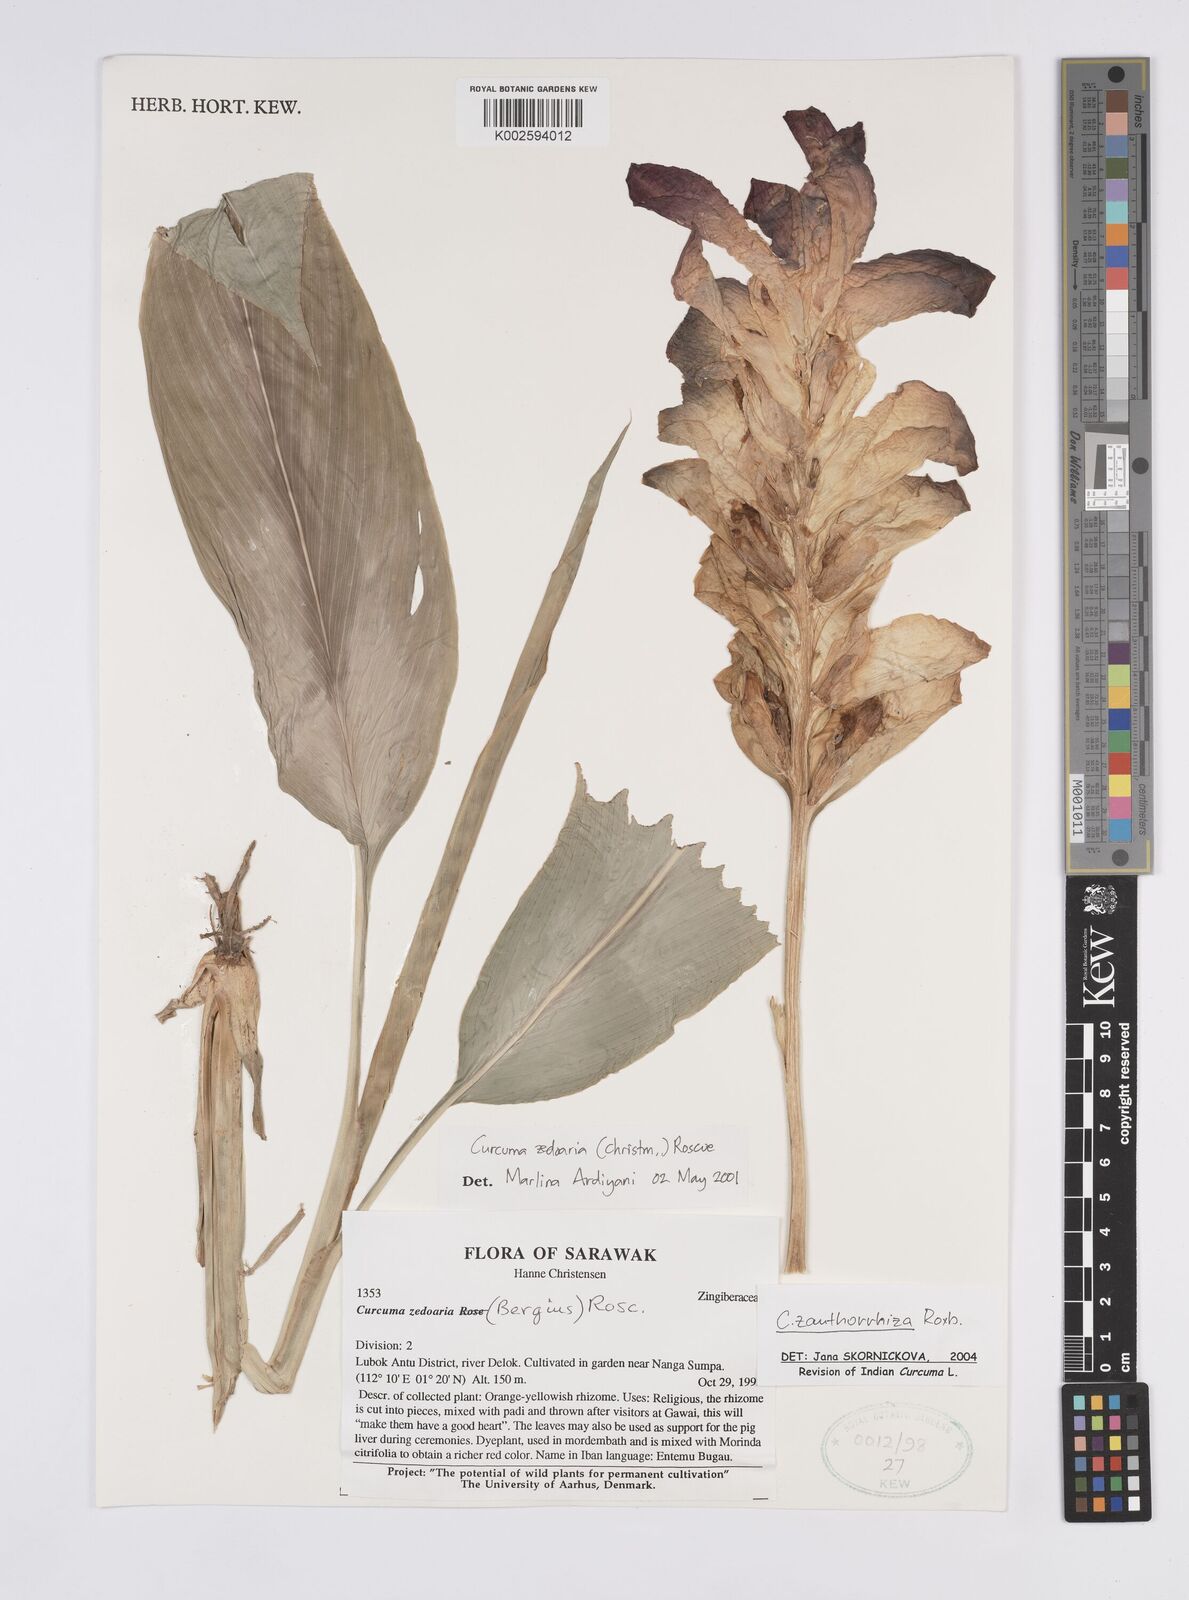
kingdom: Plantae
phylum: Tracheophyta
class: Liliopsida
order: Zingiberales
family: Zingiberaceae
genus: Curcuma
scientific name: Curcuma zanthorrhiza
